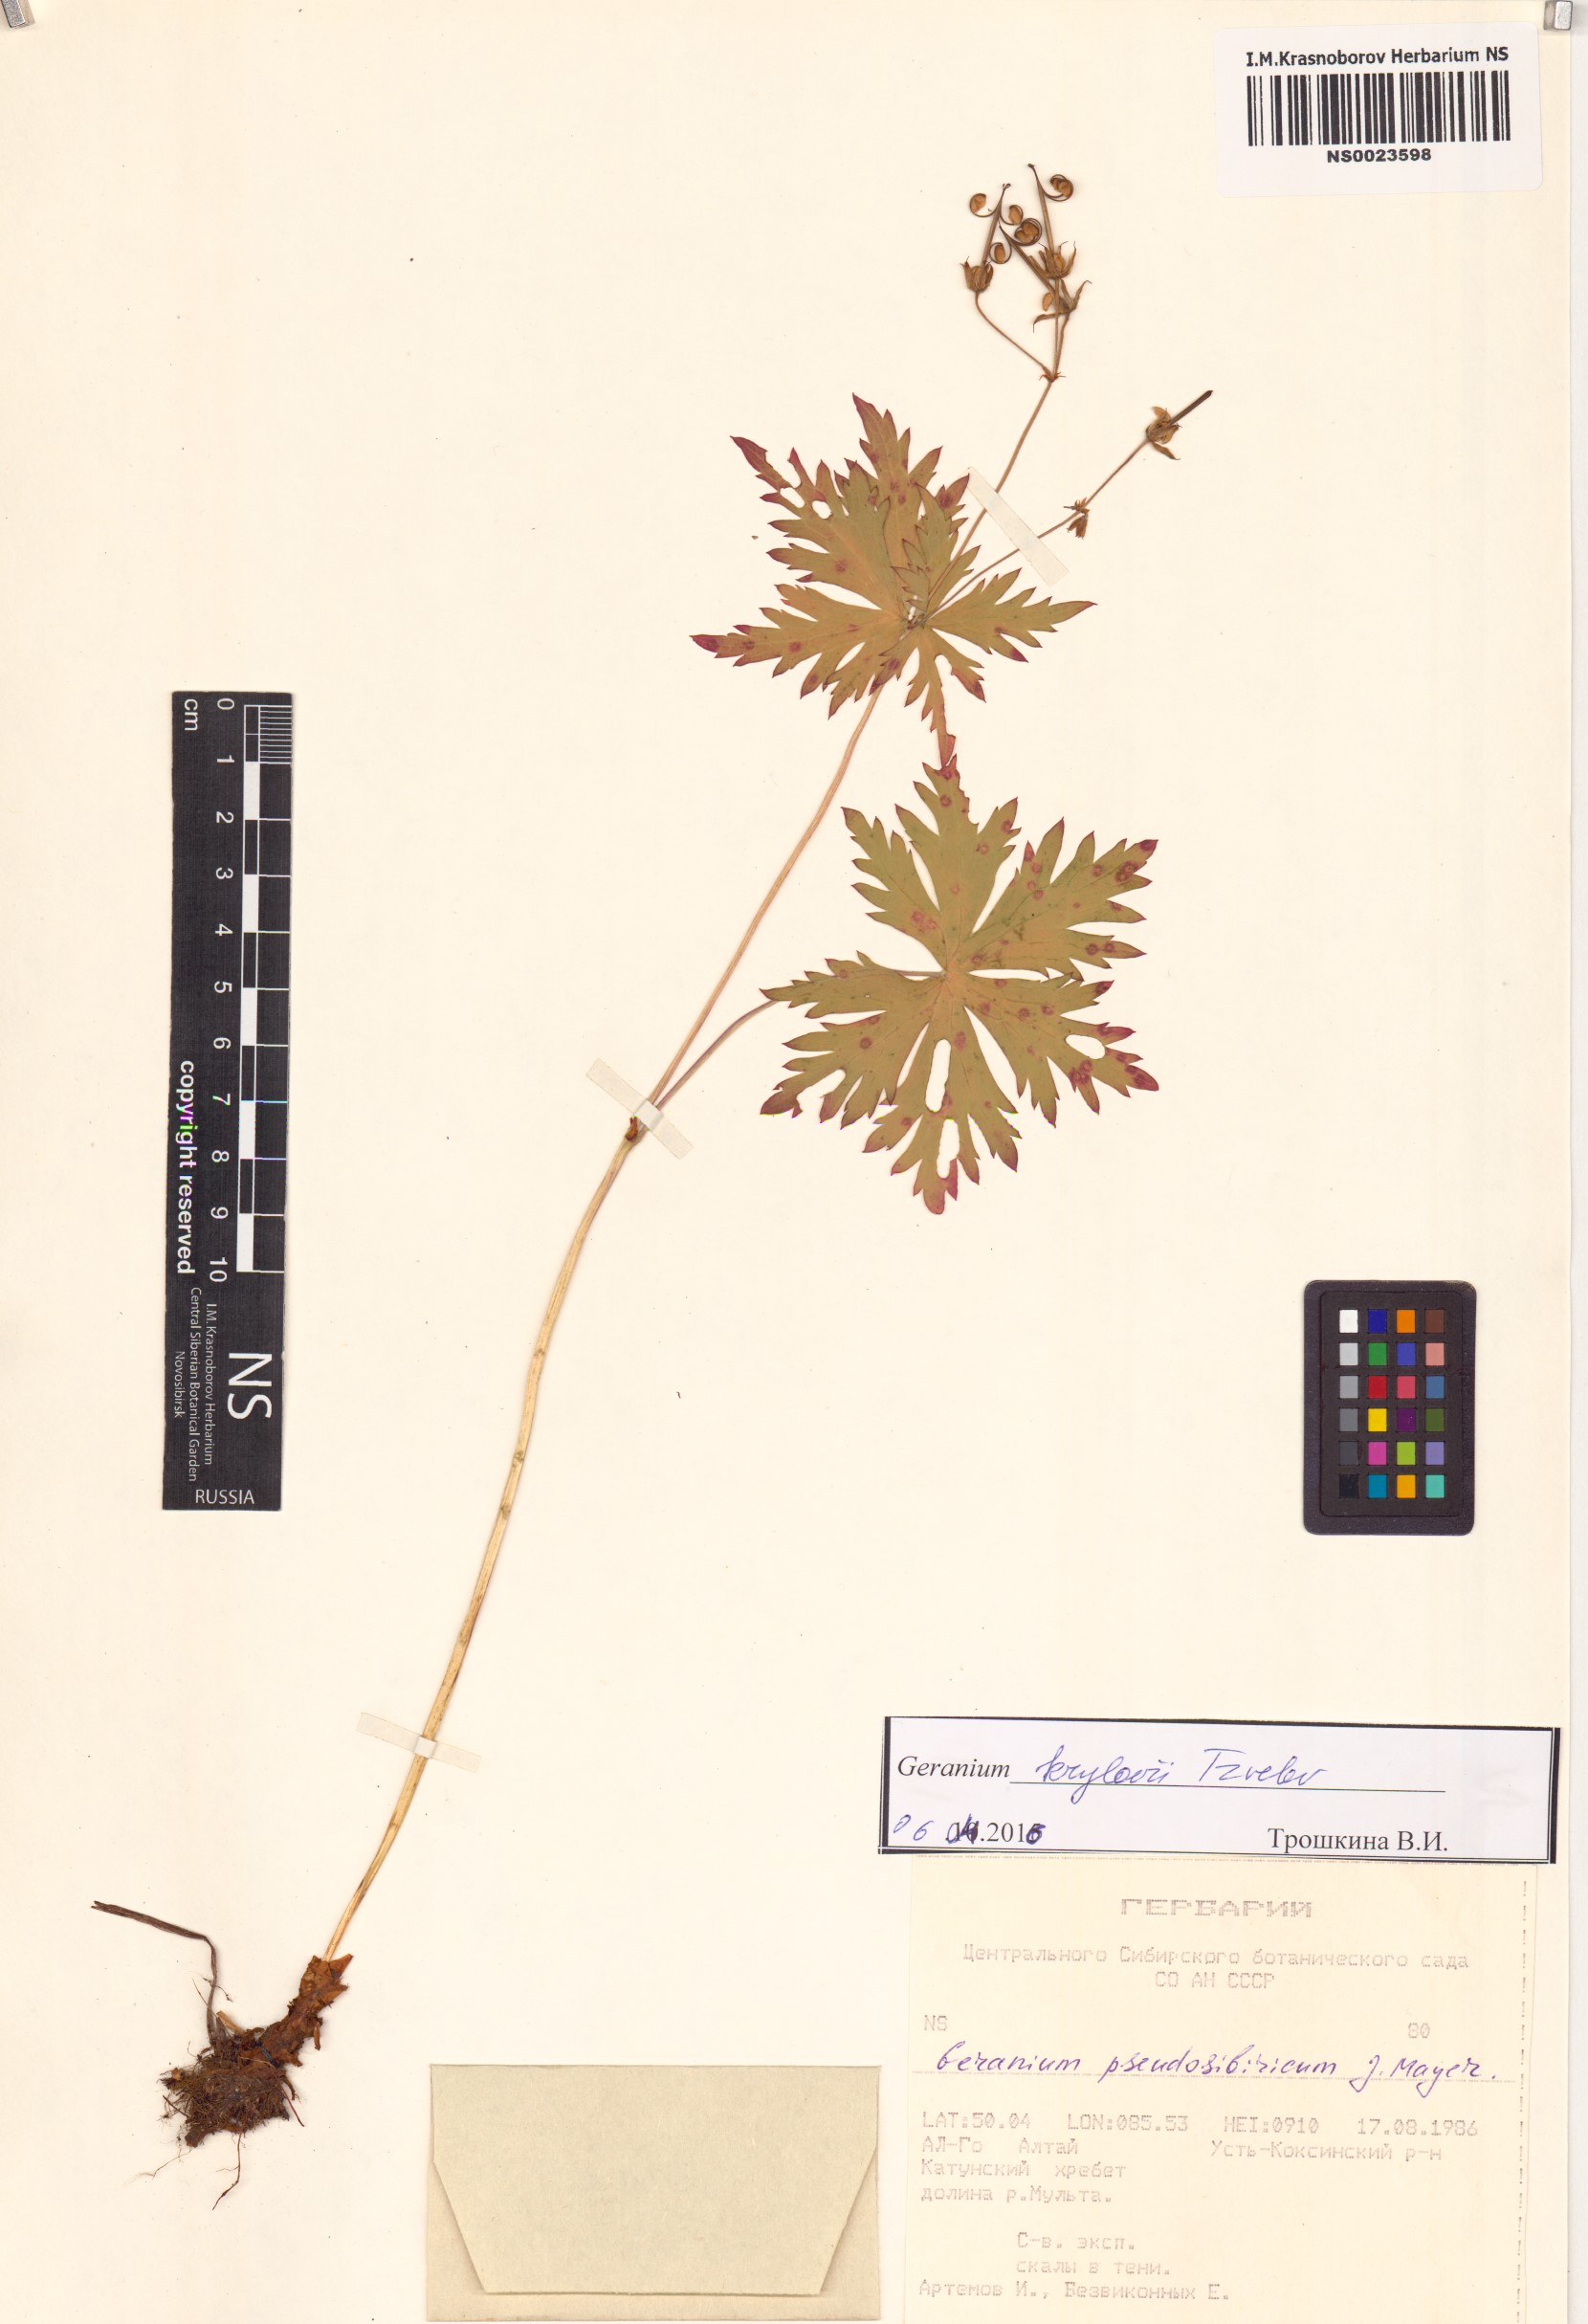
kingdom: Plantae
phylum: Tracheophyta
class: Magnoliopsida
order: Geraniales
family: Geraniaceae
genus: Geranium
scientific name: Geranium sylvaticum
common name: Wood crane's-bill
